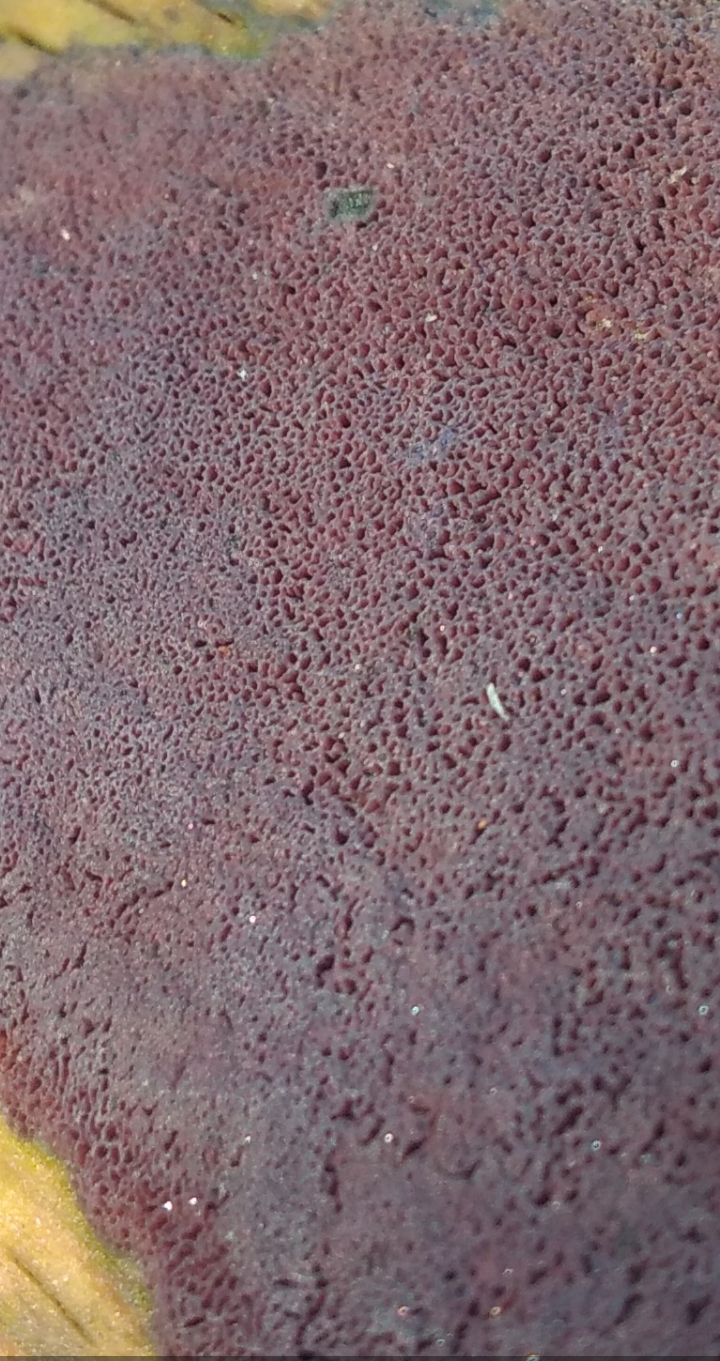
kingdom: Fungi
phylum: Basidiomycota
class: Agaricomycetes
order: Polyporales
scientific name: Polyporales
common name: poresvampordenen
